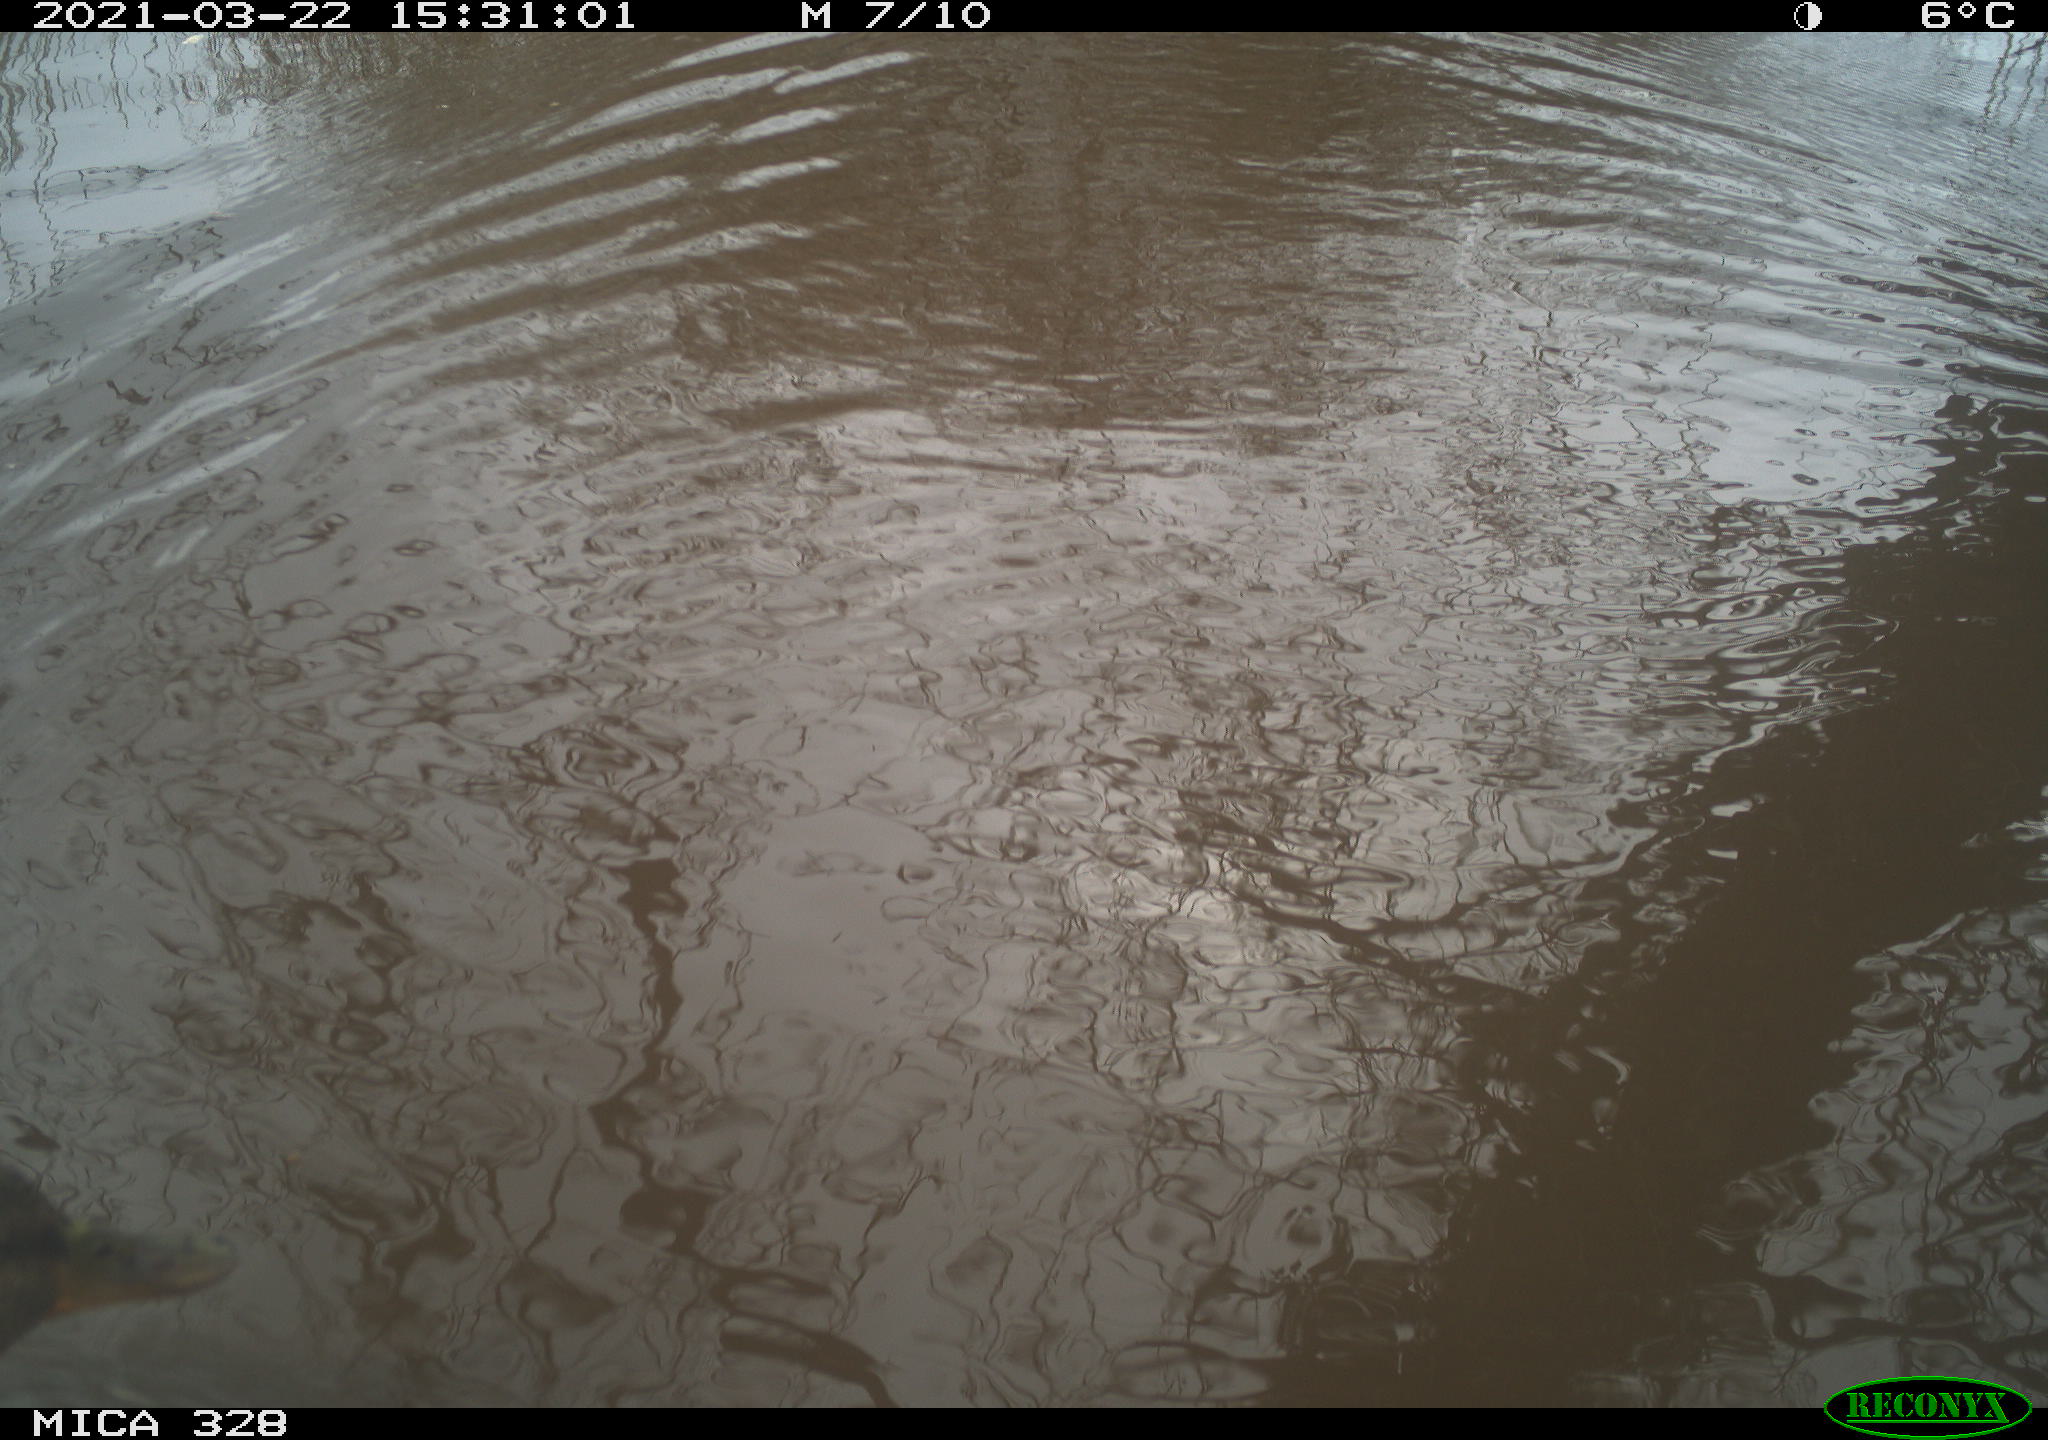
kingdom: Animalia
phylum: Chordata
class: Aves
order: Anseriformes
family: Anatidae
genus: Anas
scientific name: Anas platyrhynchos
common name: Mallard
